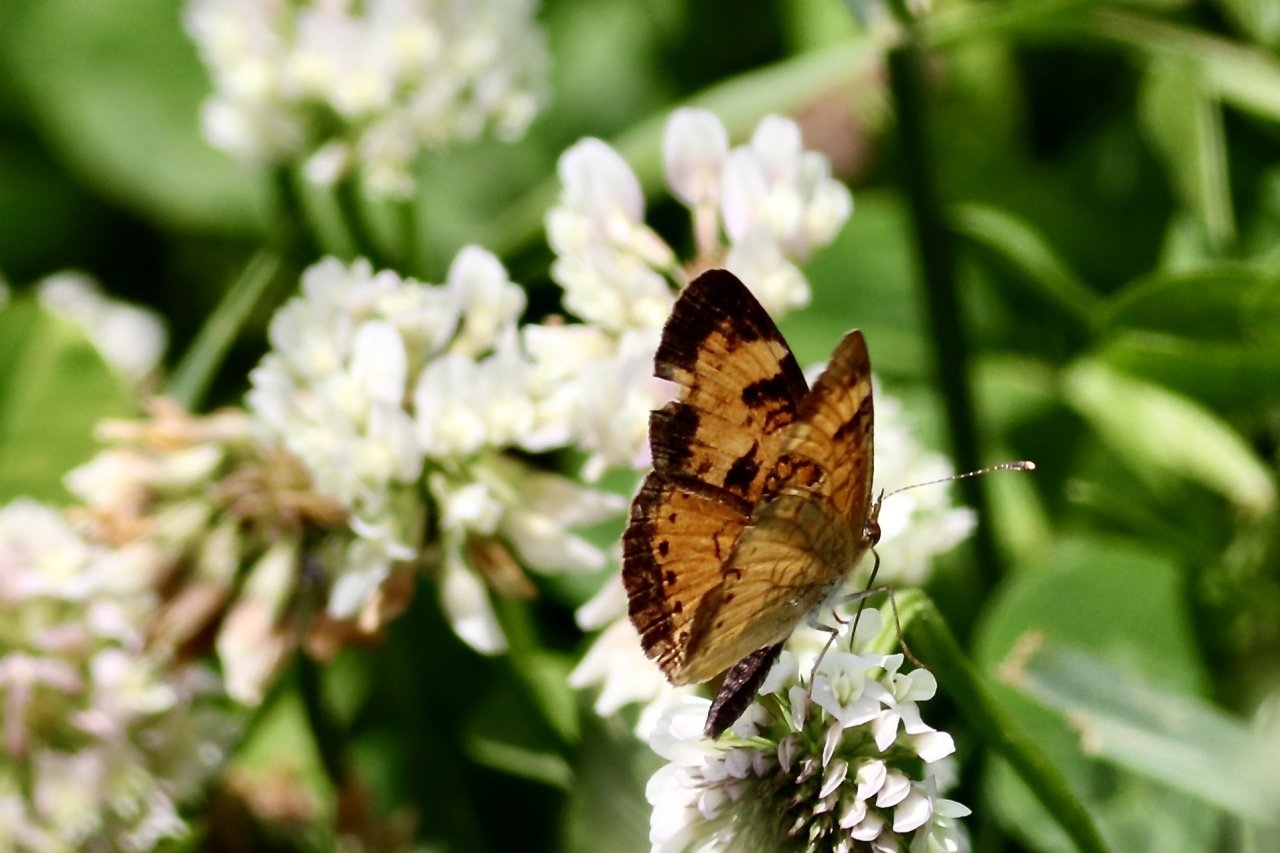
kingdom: Animalia
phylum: Arthropoda
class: Insecta
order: Lepidoptera
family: Nymphalidae
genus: Phyciodes
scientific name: Phyciodes tharos
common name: Northern Crescent
